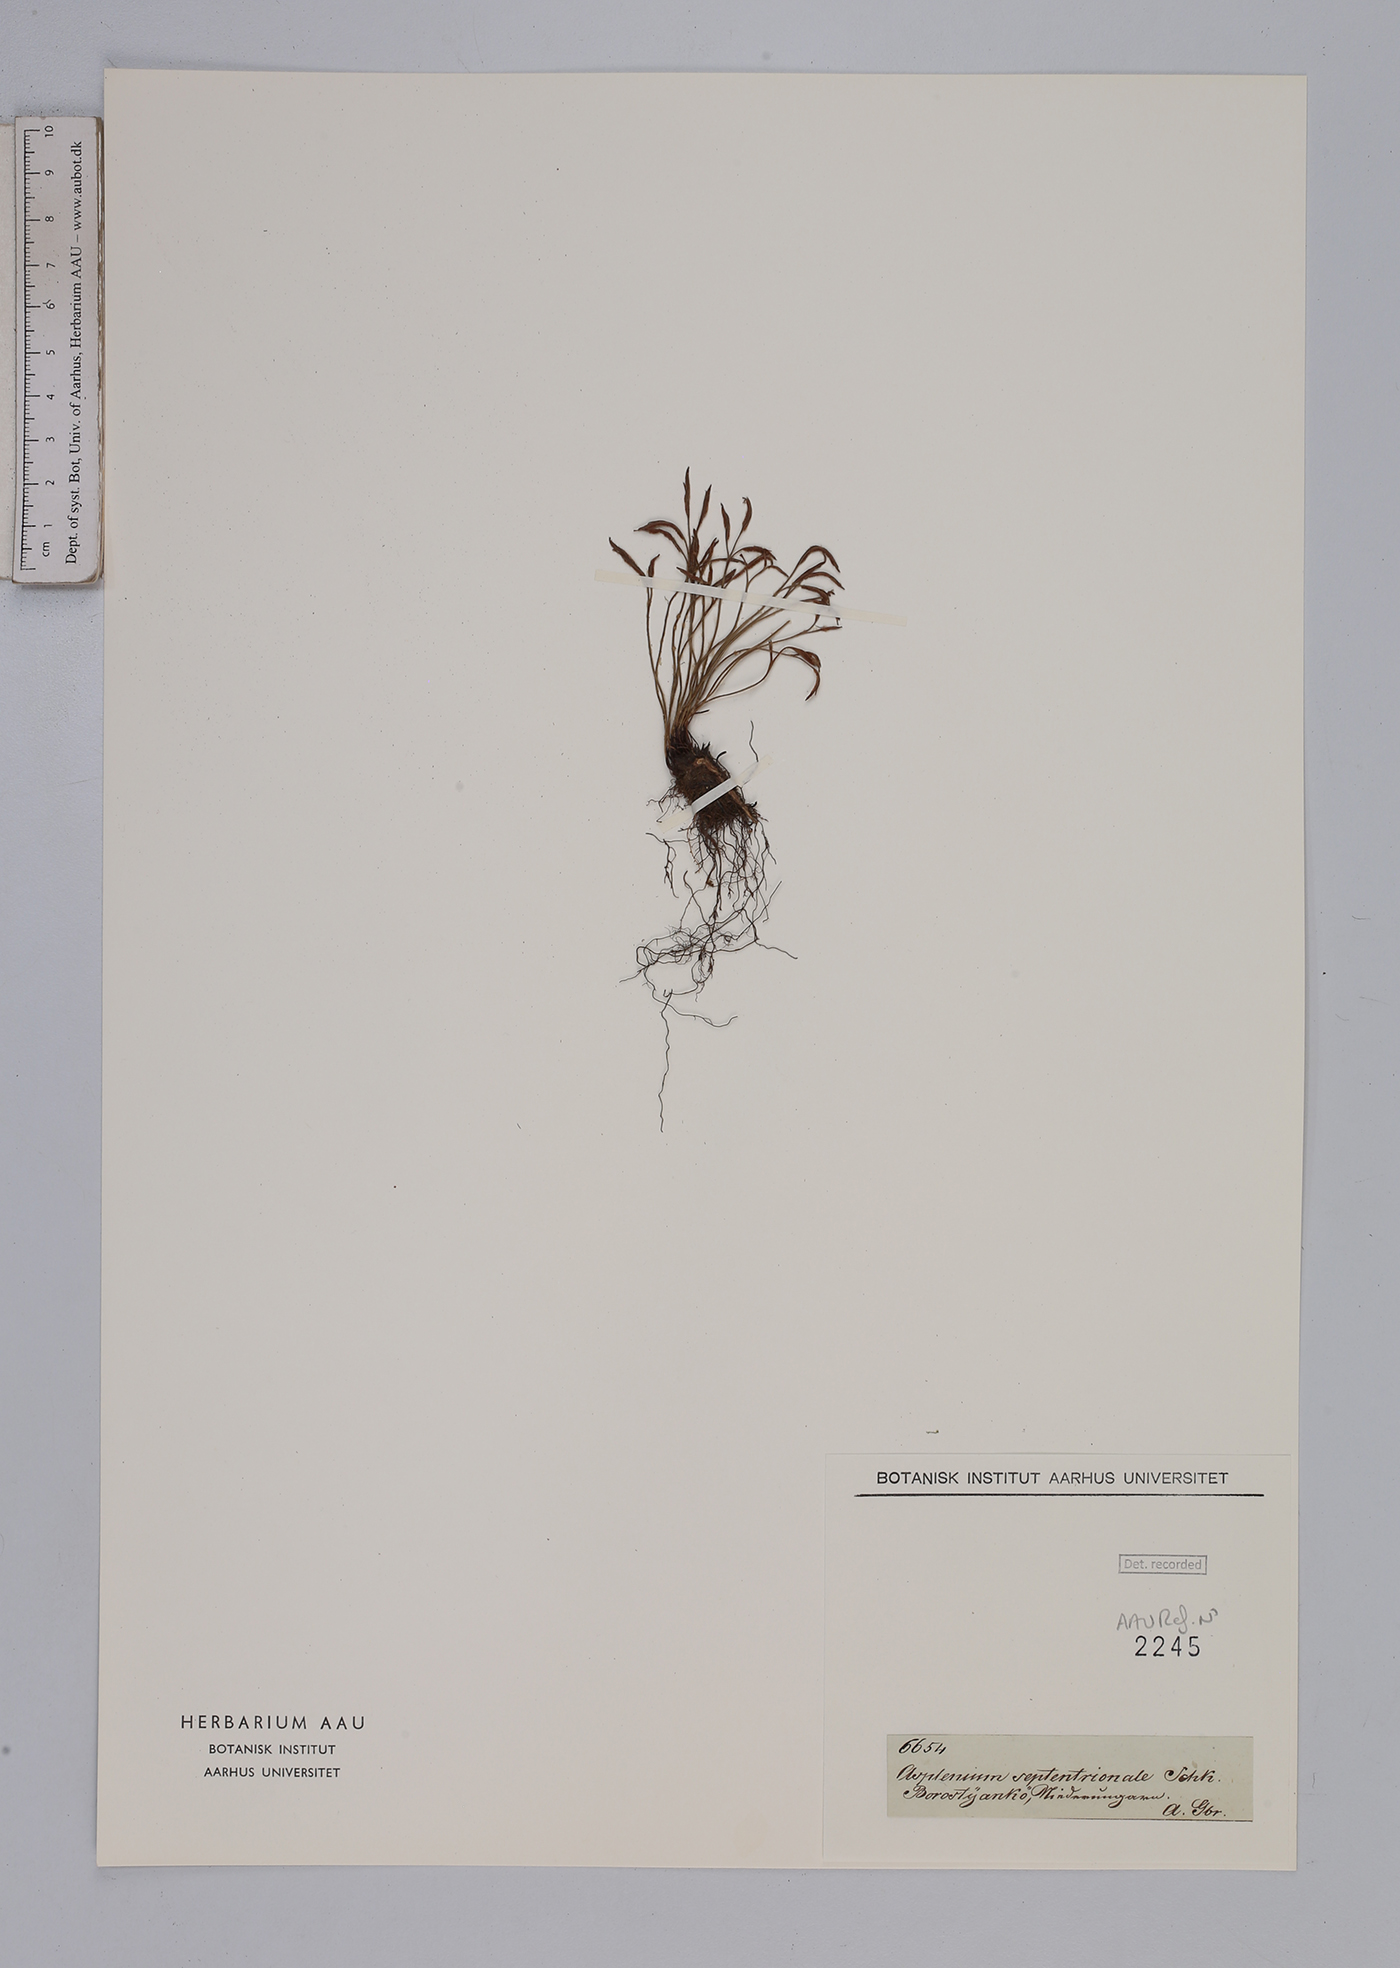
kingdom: Plantae
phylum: Tracheophyta
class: Polypodiopsida
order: Polypodiales
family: Aspleniaceae
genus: Asplenium
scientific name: Asplenium septentrionale
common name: Forked spleenwort
